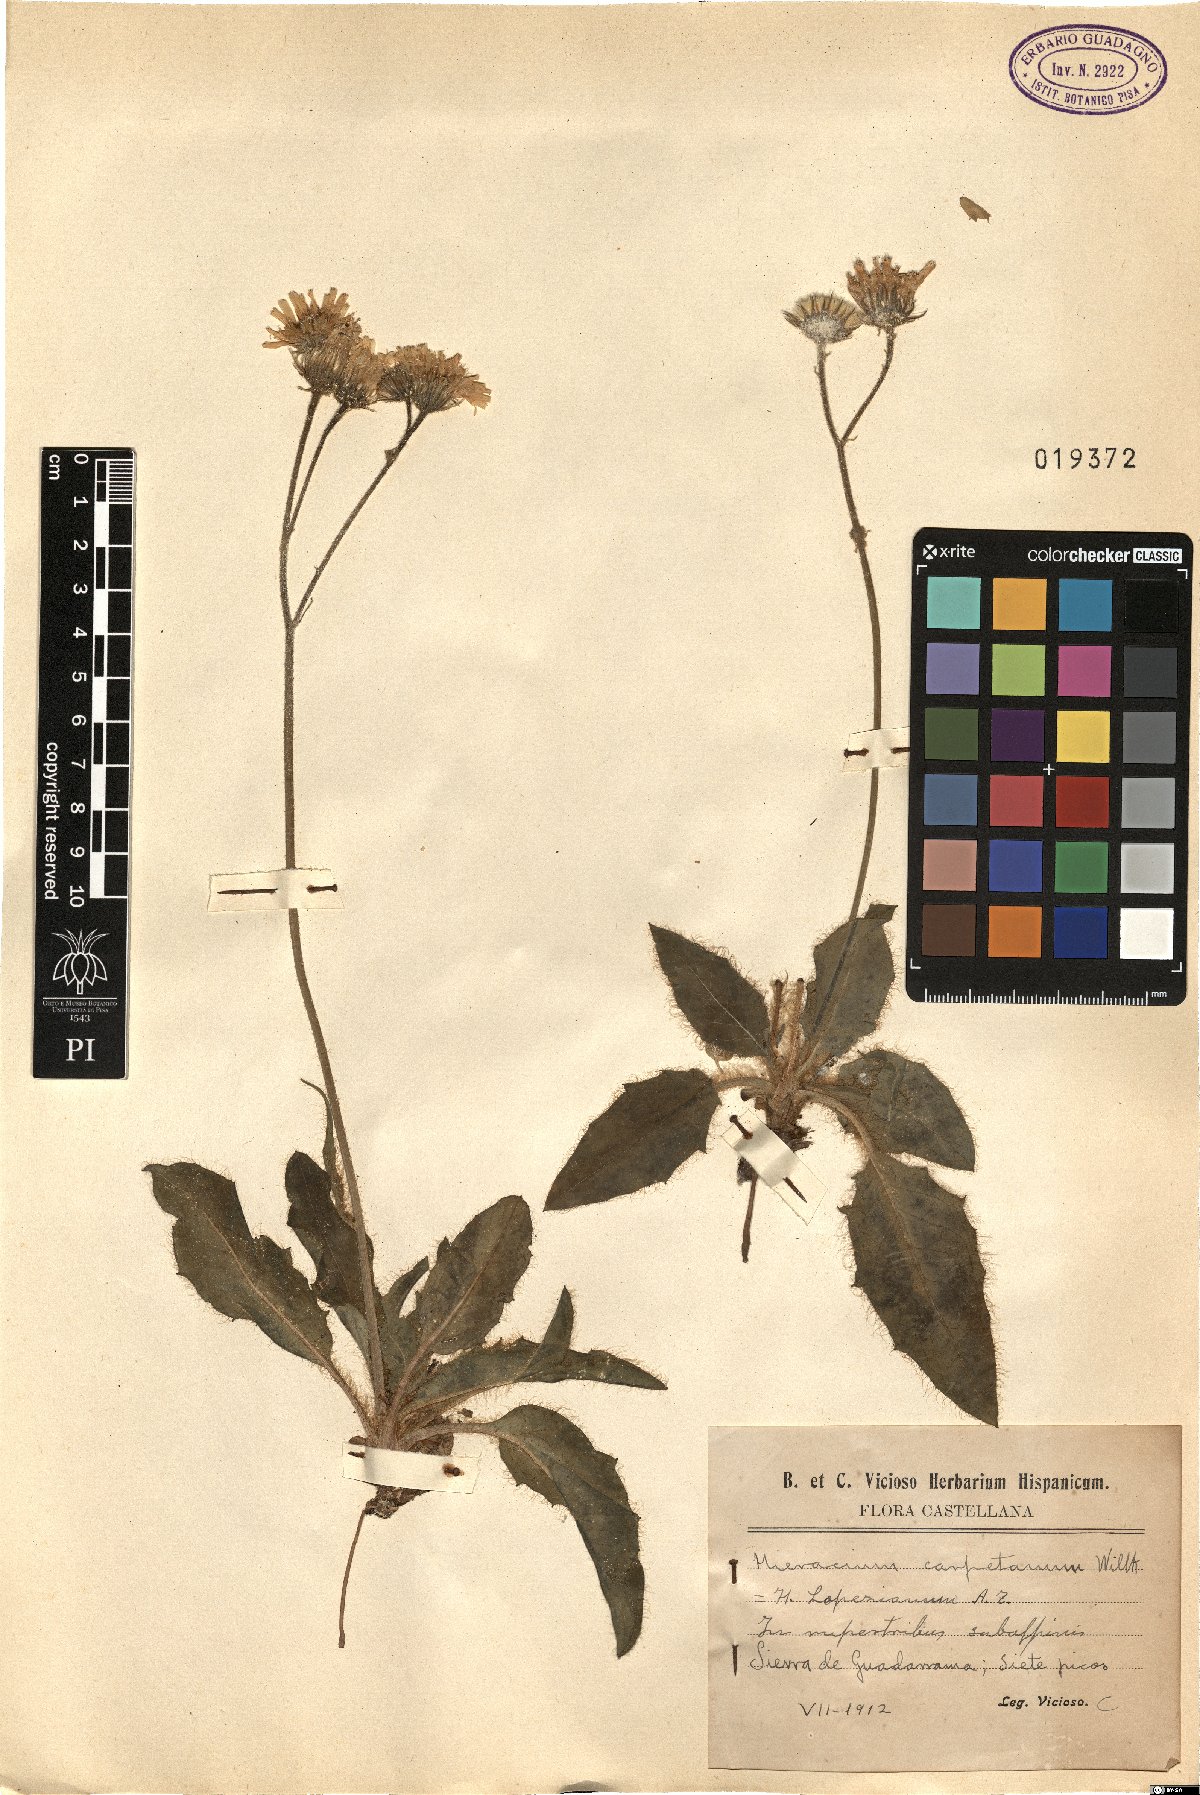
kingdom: Plantae
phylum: Tracheophyta
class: Magnoliopsida
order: Asterales
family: Asteraceae
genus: Hieracium
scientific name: Hieracium vestitum
